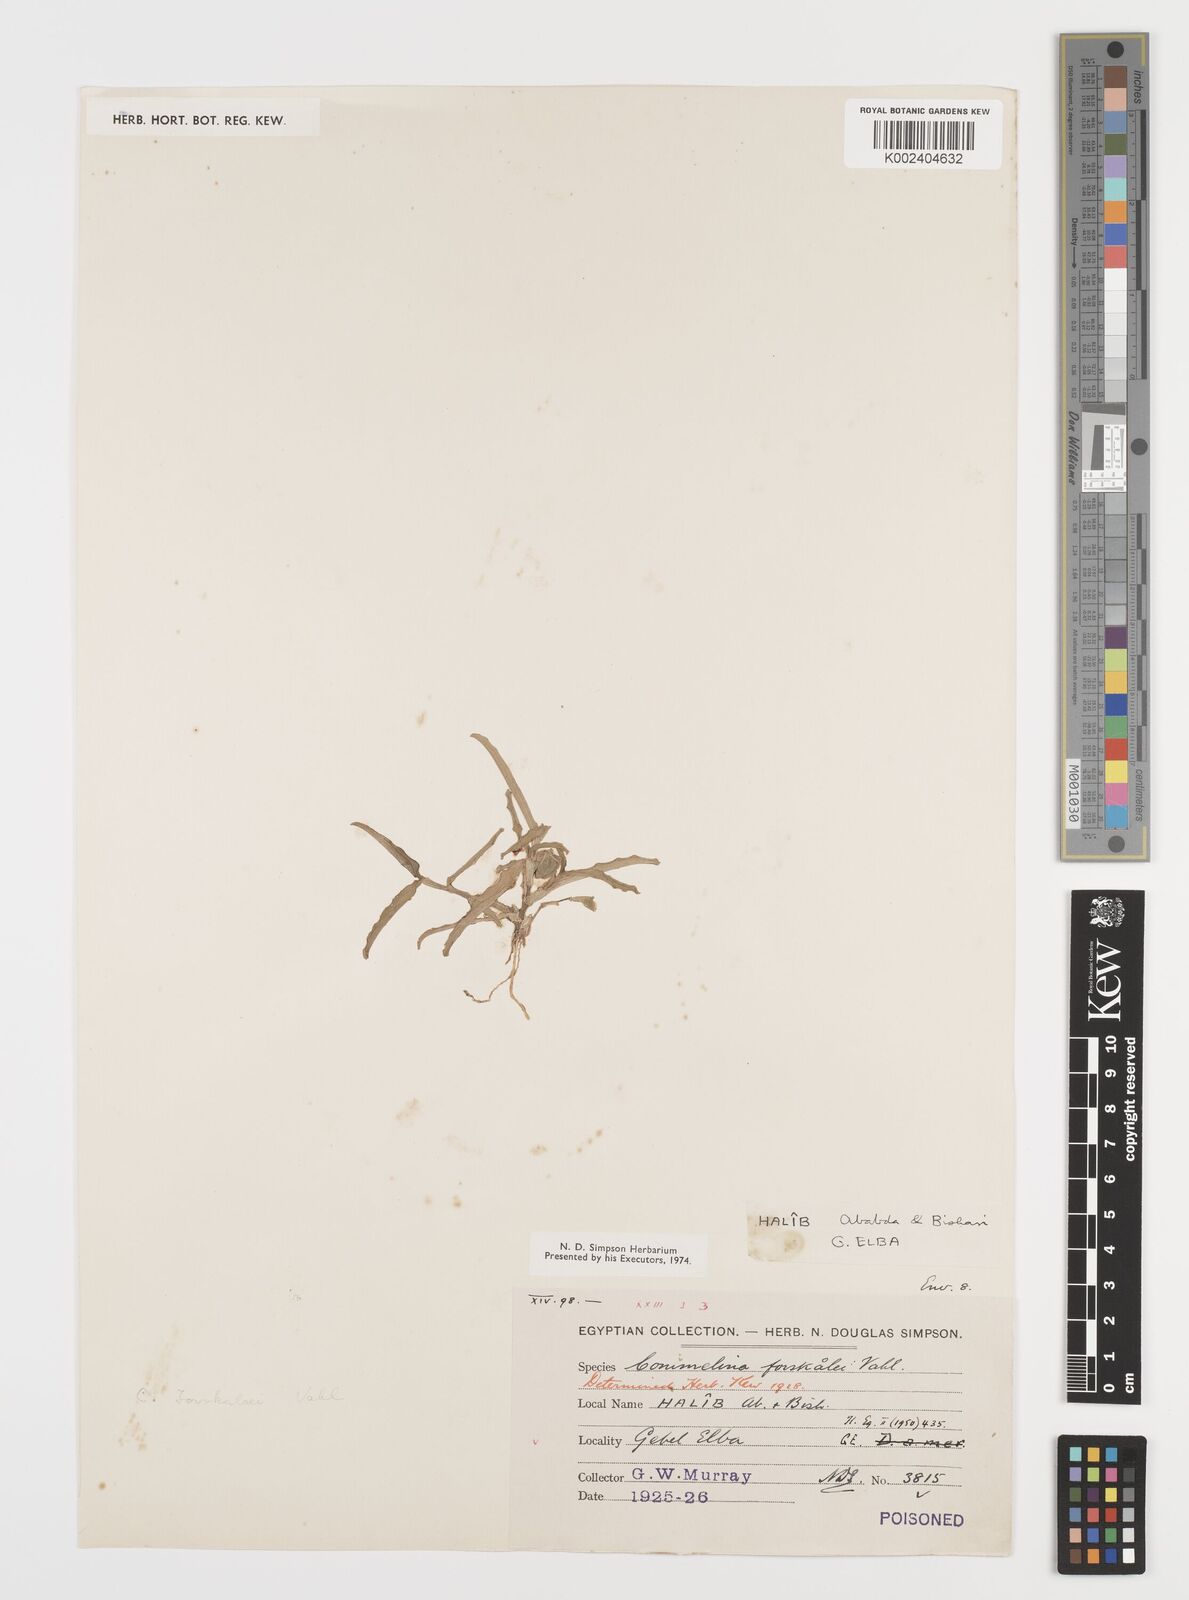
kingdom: Plantae
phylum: Tracheophyta
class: Liliopsida
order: Commelinales
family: Commelinaceae
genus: Commelina
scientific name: Commelina forskaolii
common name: Rat's ear
